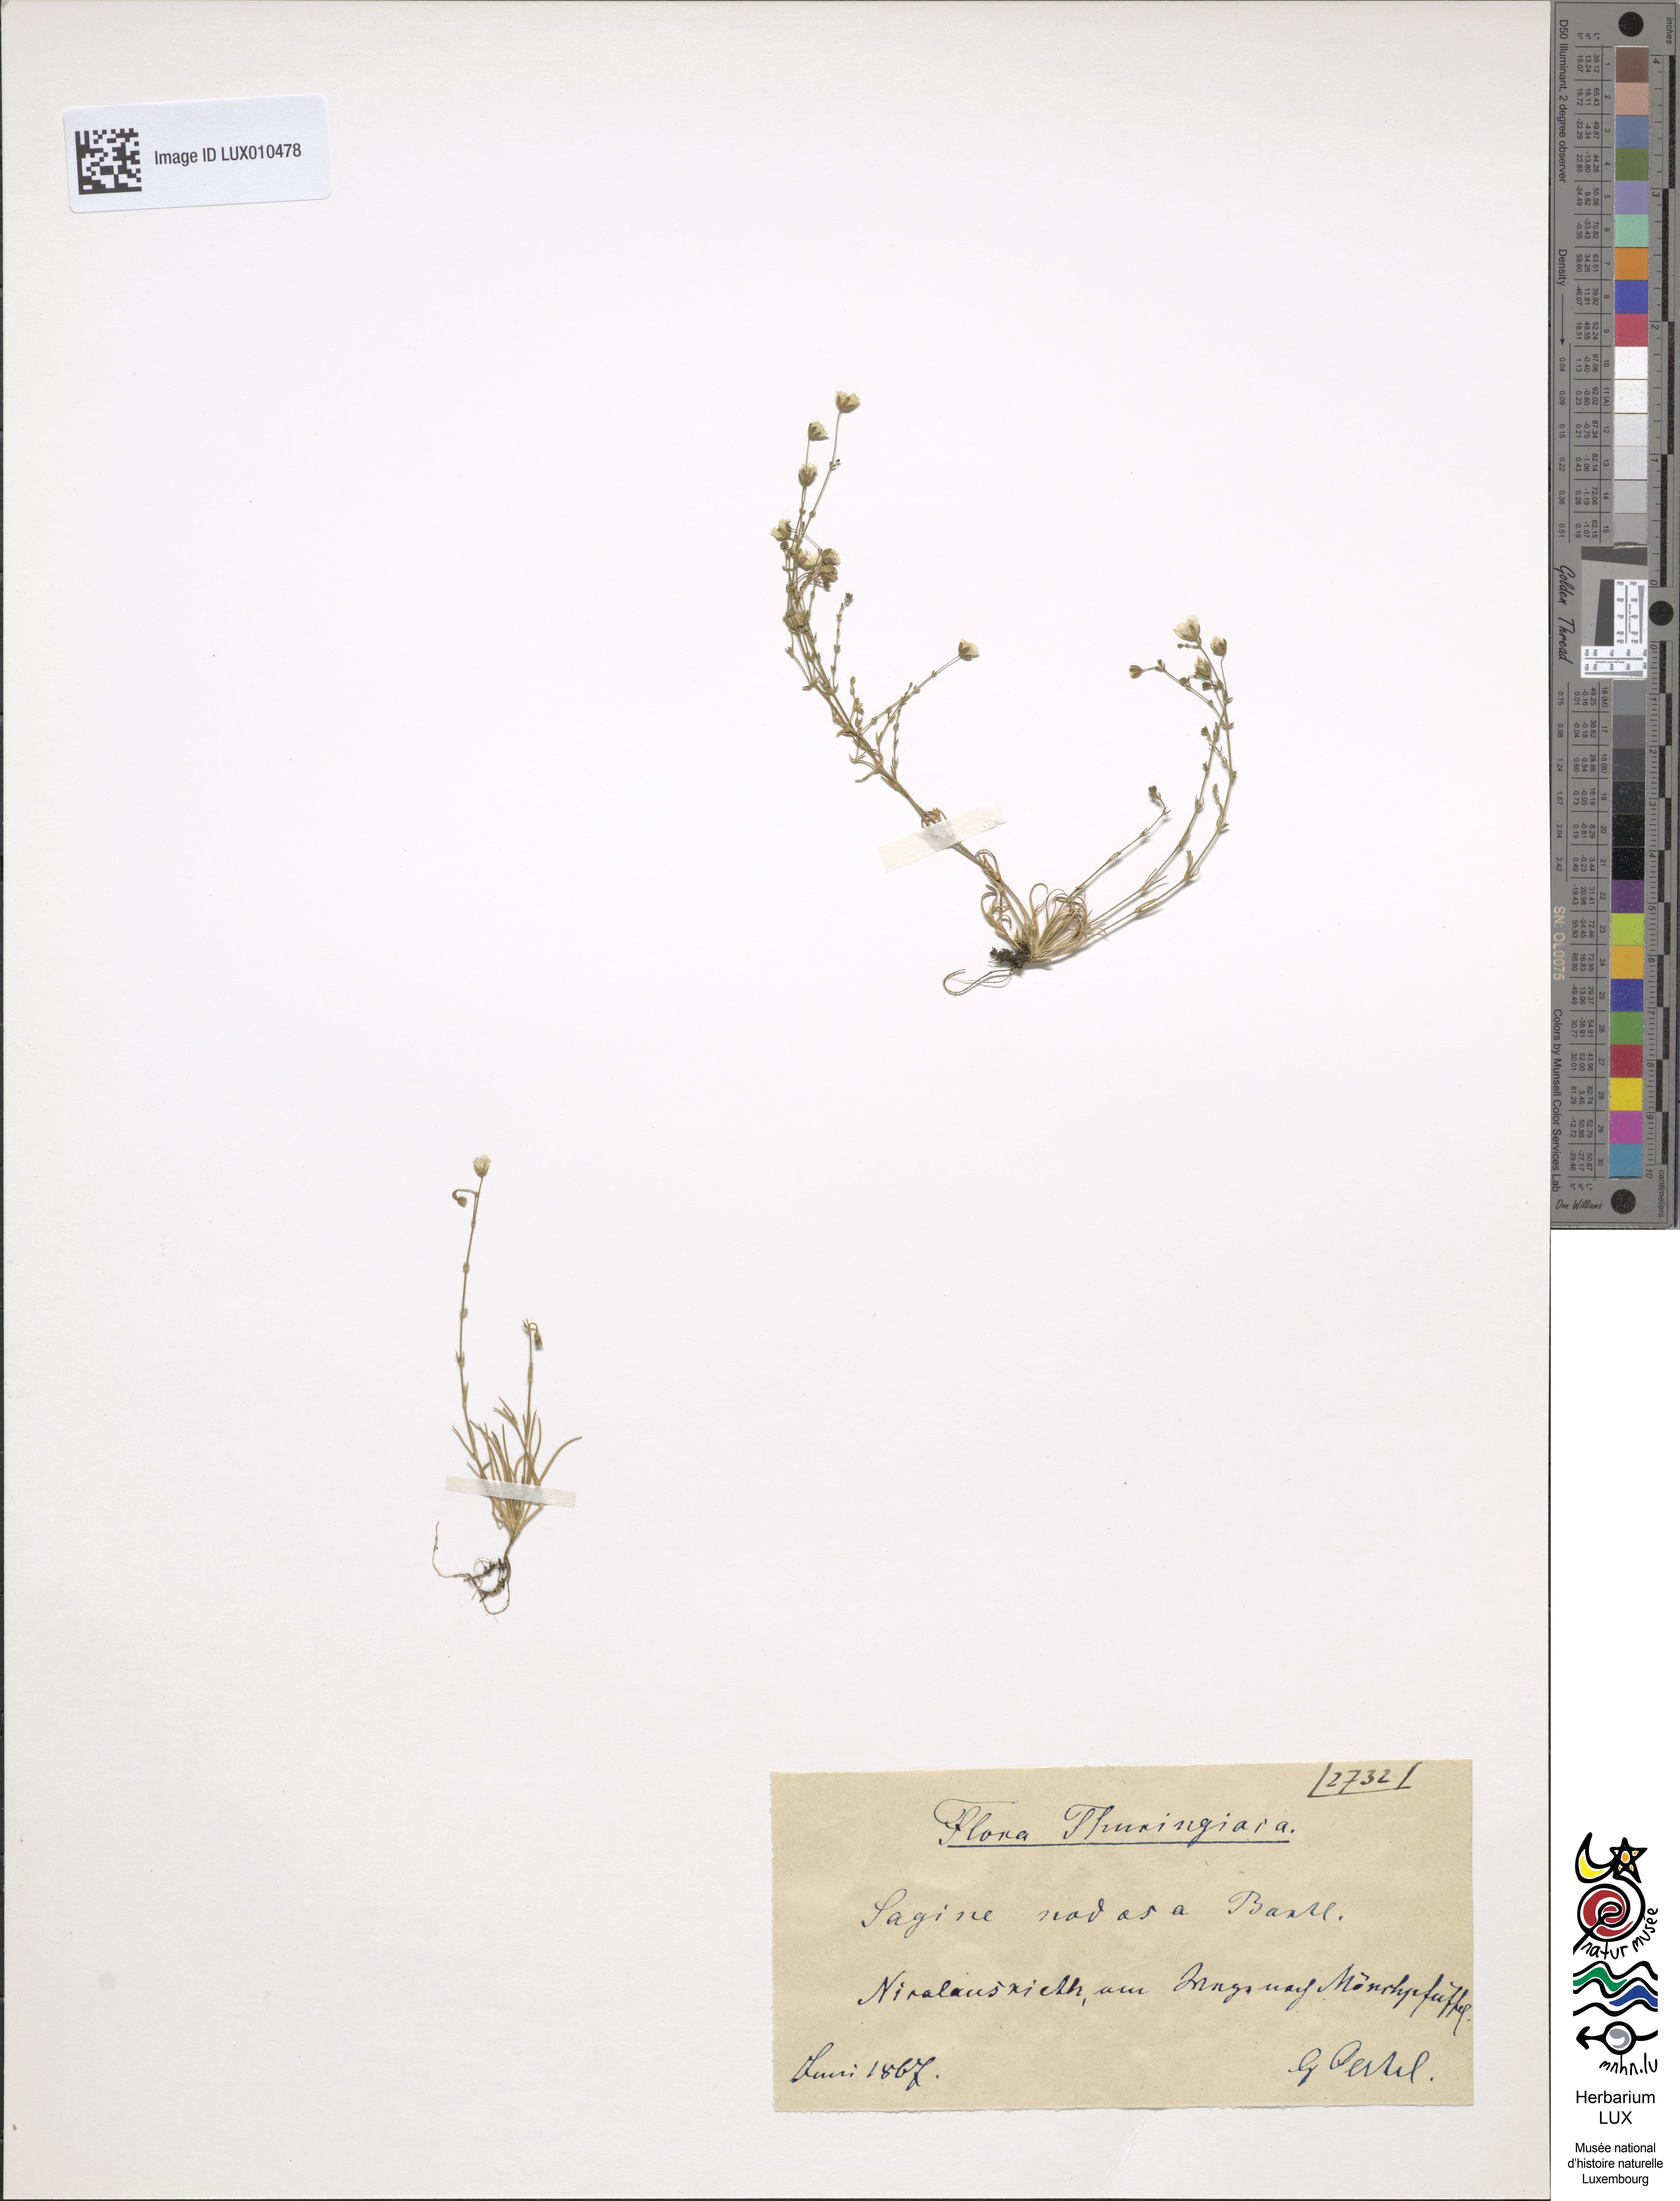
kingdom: Plantae
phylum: Tracheophyta
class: Magnoliopsida
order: Caryophyllales
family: Caryophyllaceae
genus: Sagina
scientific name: Sagina nodosa
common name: Knotted pearlwort
